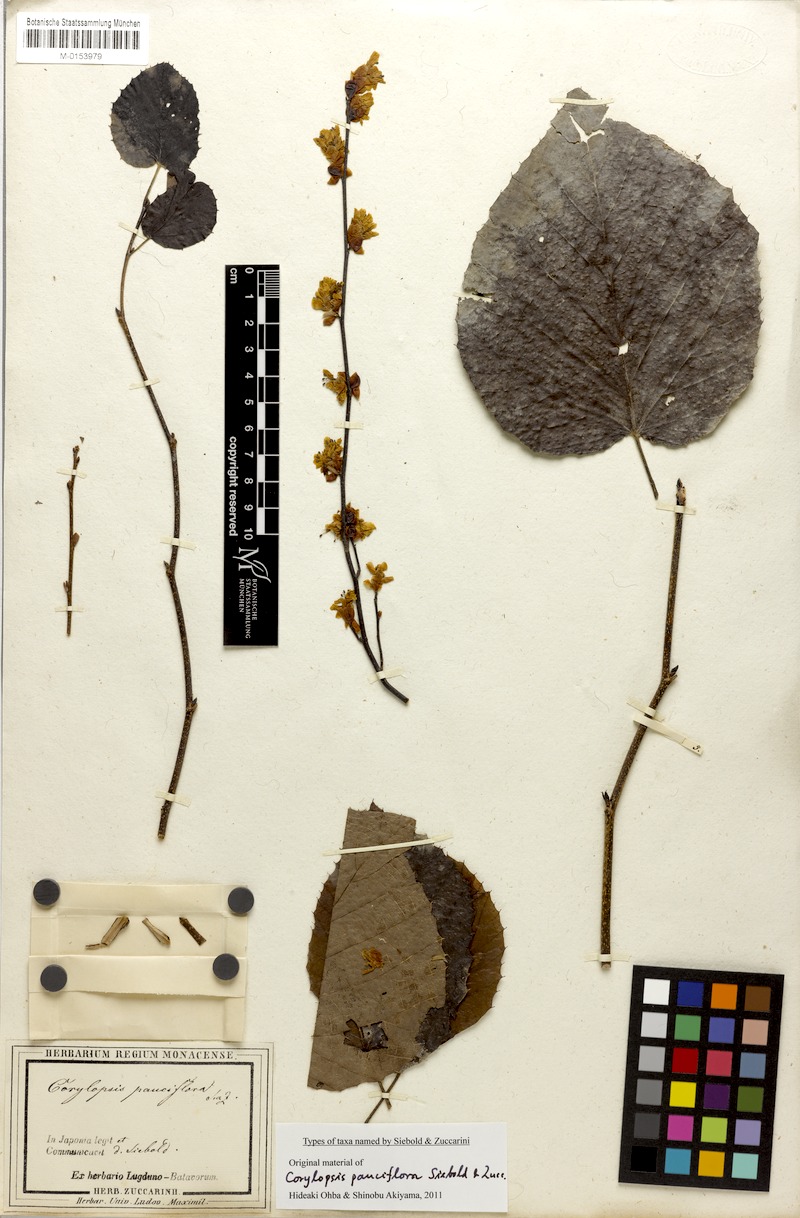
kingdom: Plantae
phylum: Tracheophyta
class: Magnoliopsida
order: Saxifragales
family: Hamamelidaceae
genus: Corylopsis
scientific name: Corylopsis pauciflora
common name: Buttercup winter-hazel
